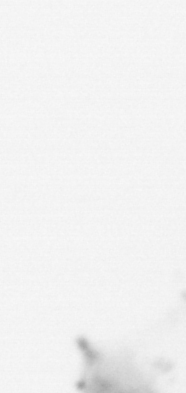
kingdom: Animalia
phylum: Chordata
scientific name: Chordata
